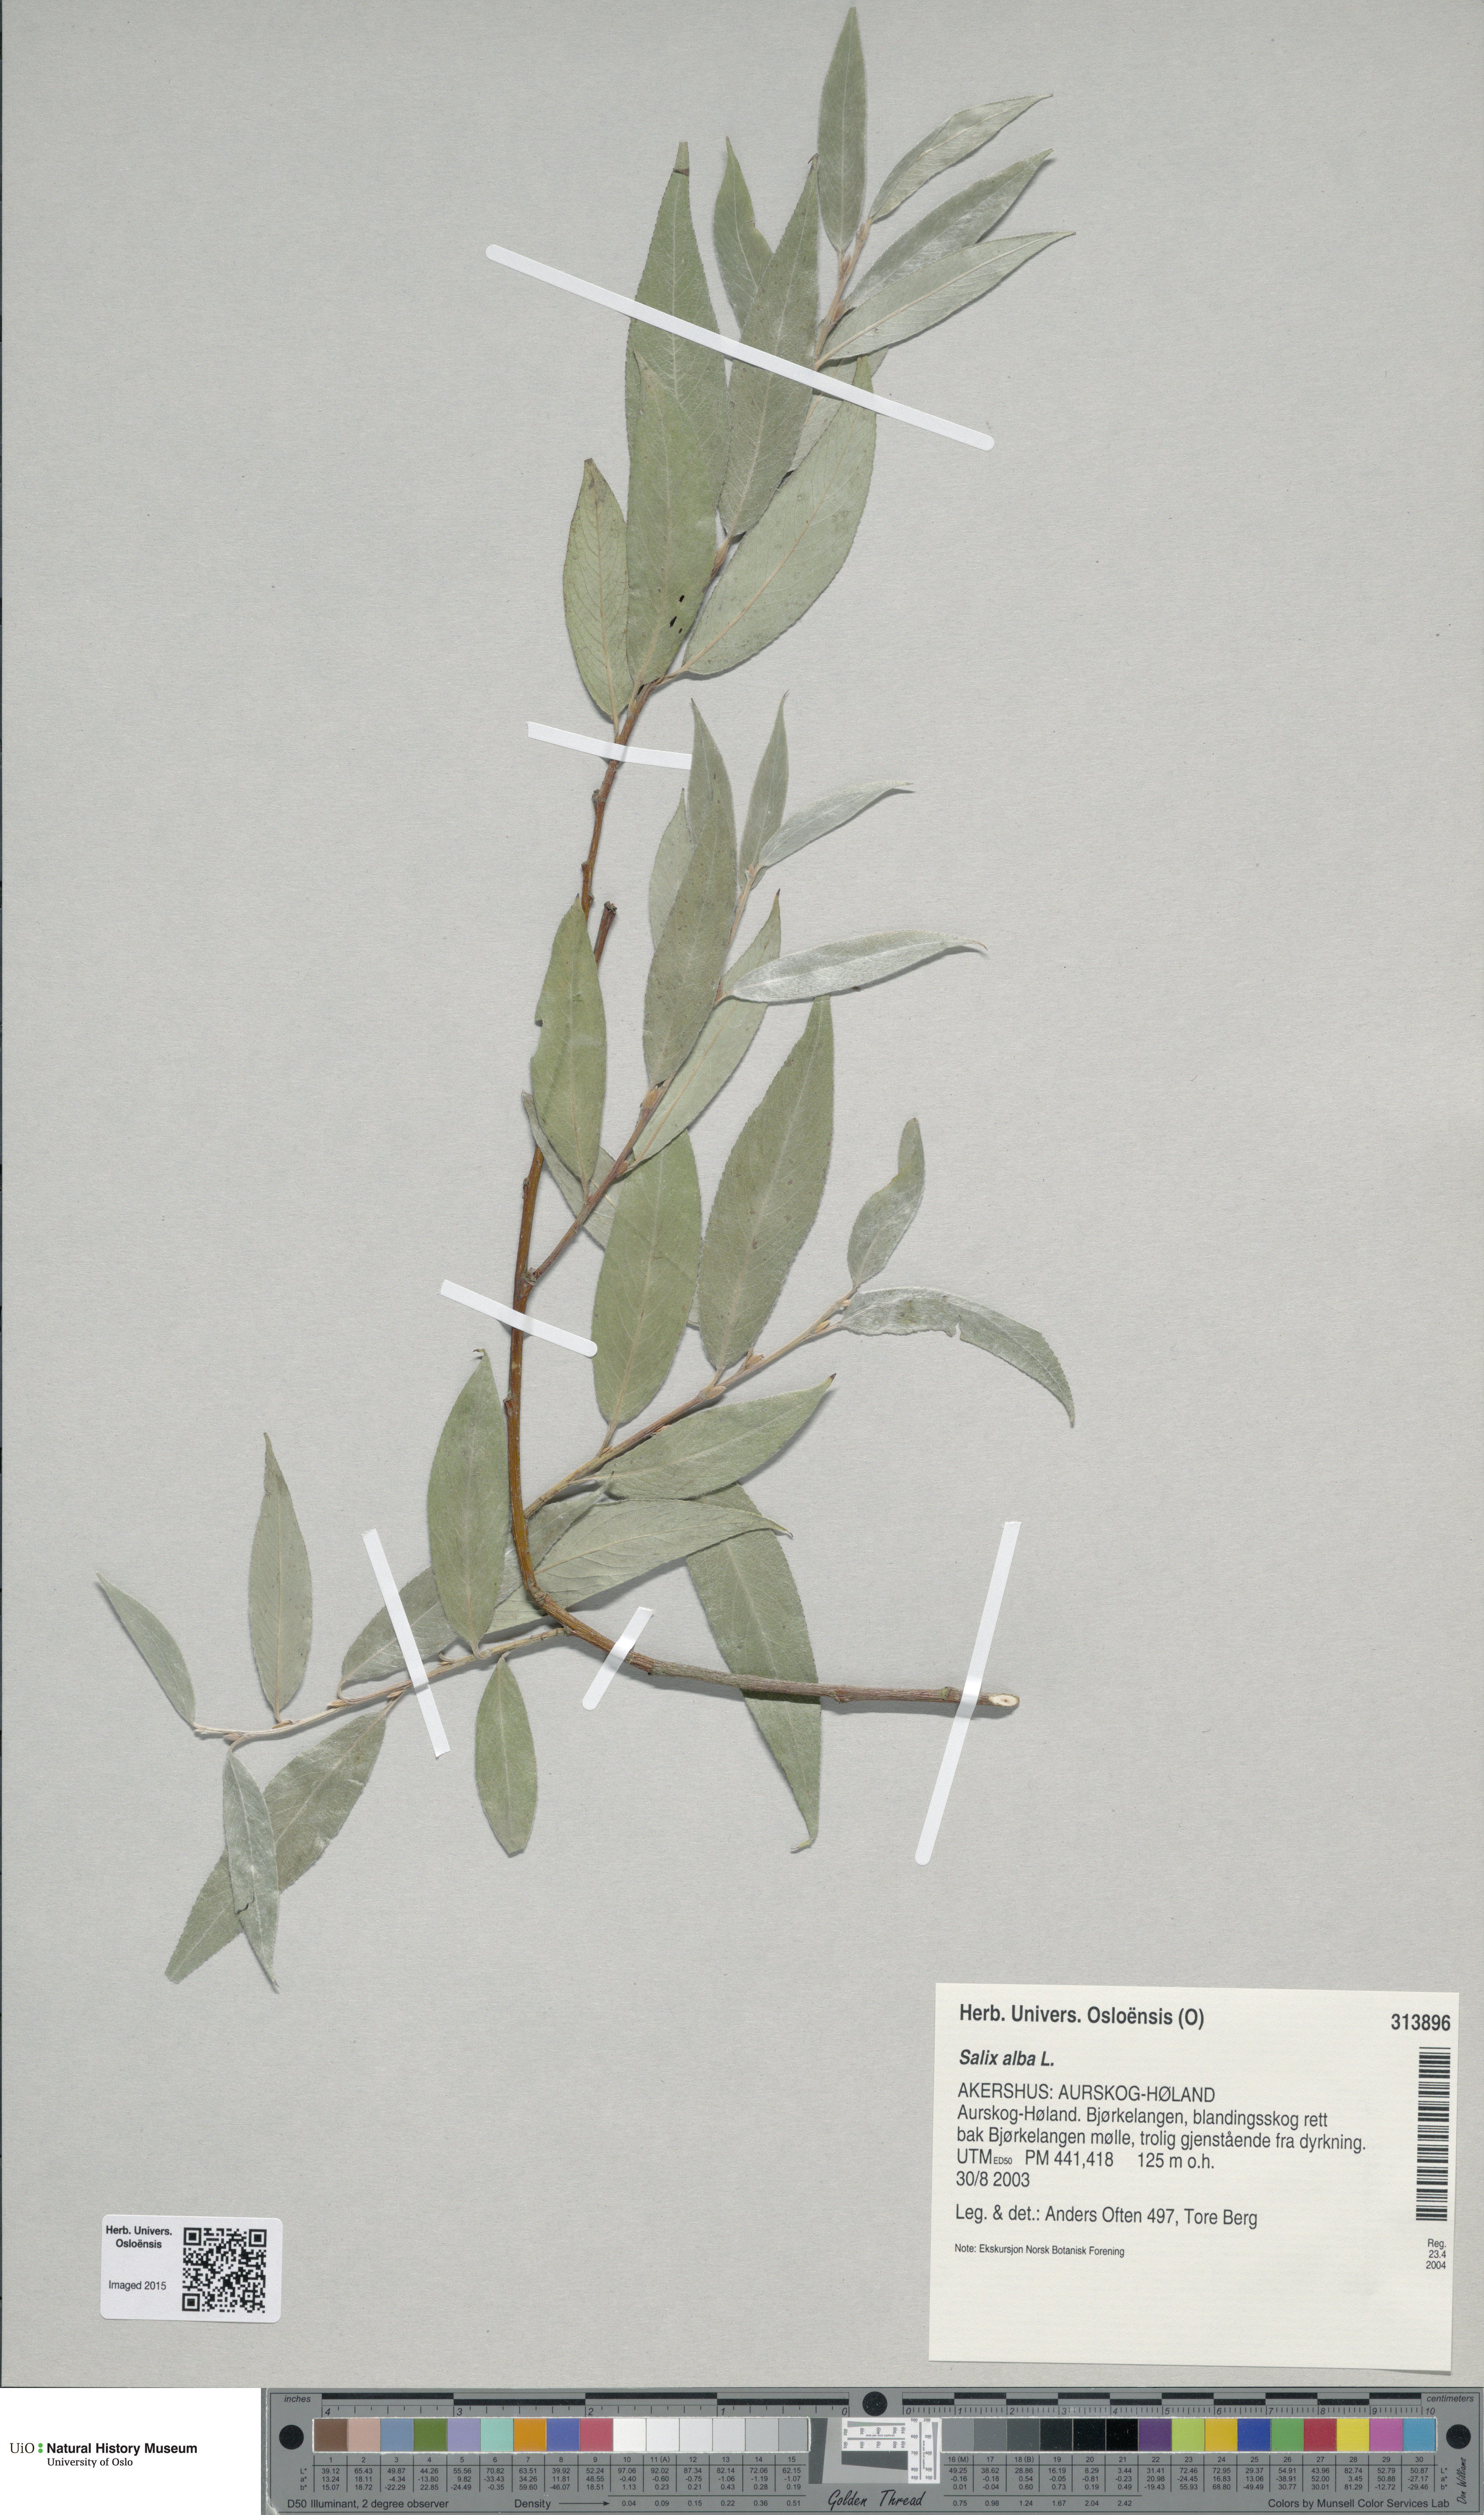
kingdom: Plantae
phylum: Tracheophyta
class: Magnoliopsida
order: Malpighiales
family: Salicaceae
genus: Salix
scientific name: Salix alba
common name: White willow
